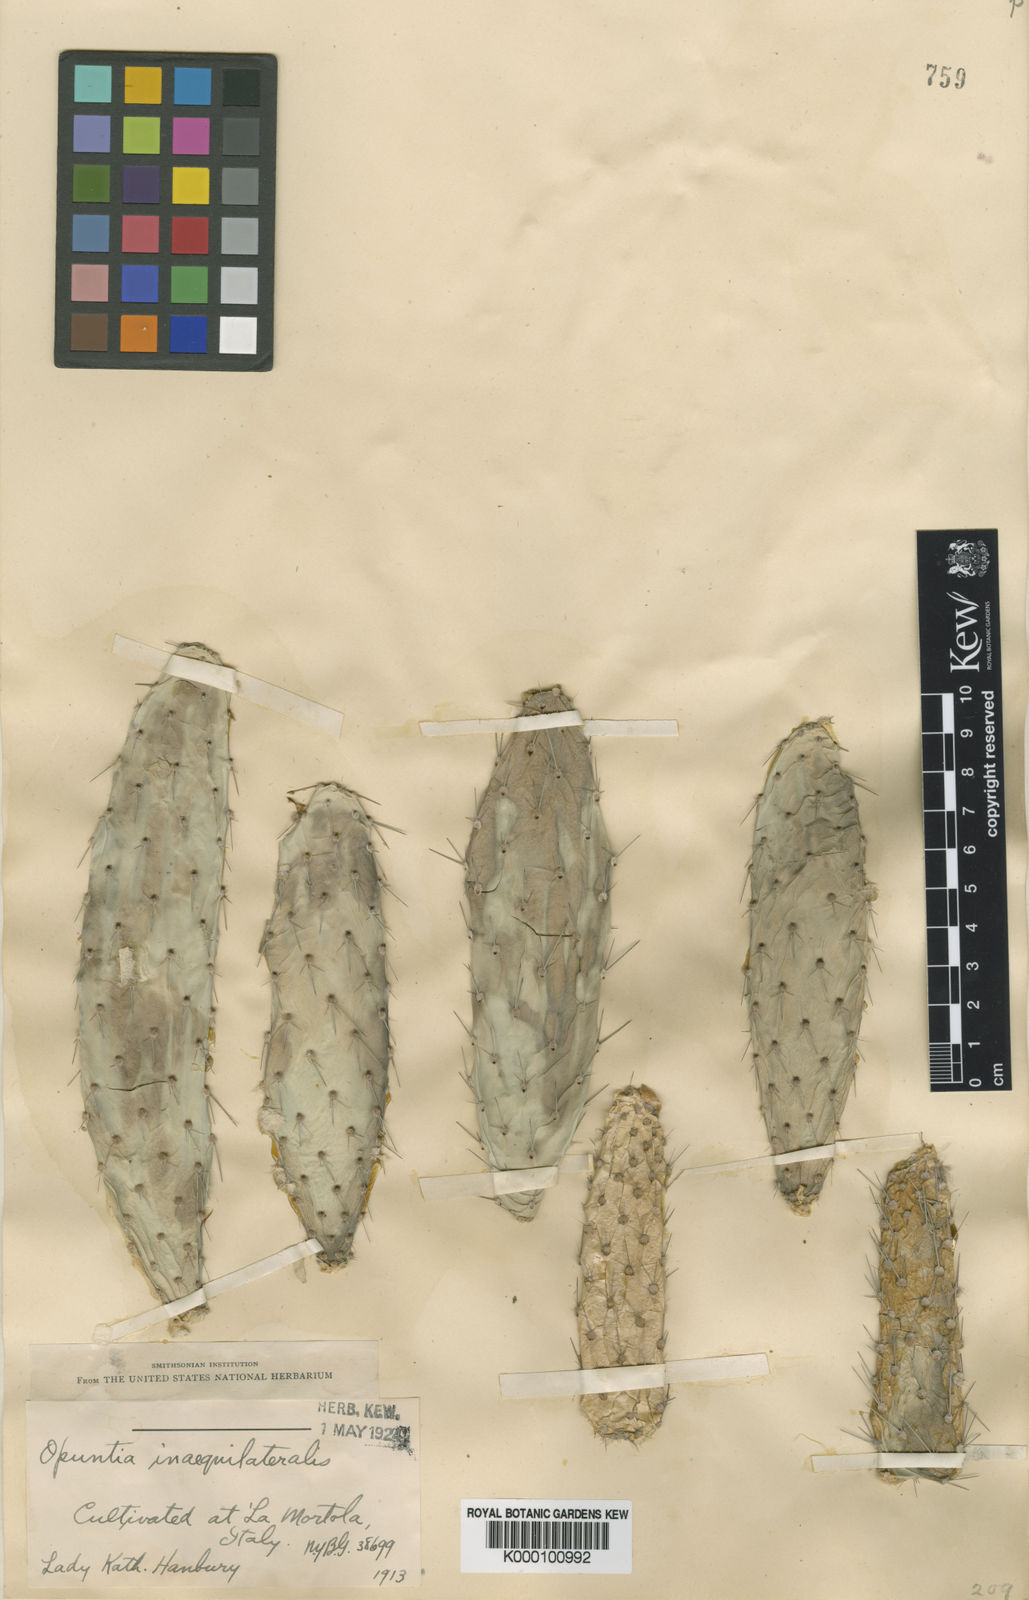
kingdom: Plantae
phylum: Tracheophyta
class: Magnoliopsida
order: Caryophyllales
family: Cactaceae
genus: Opuntia
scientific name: Opuntia inaequilateralis
